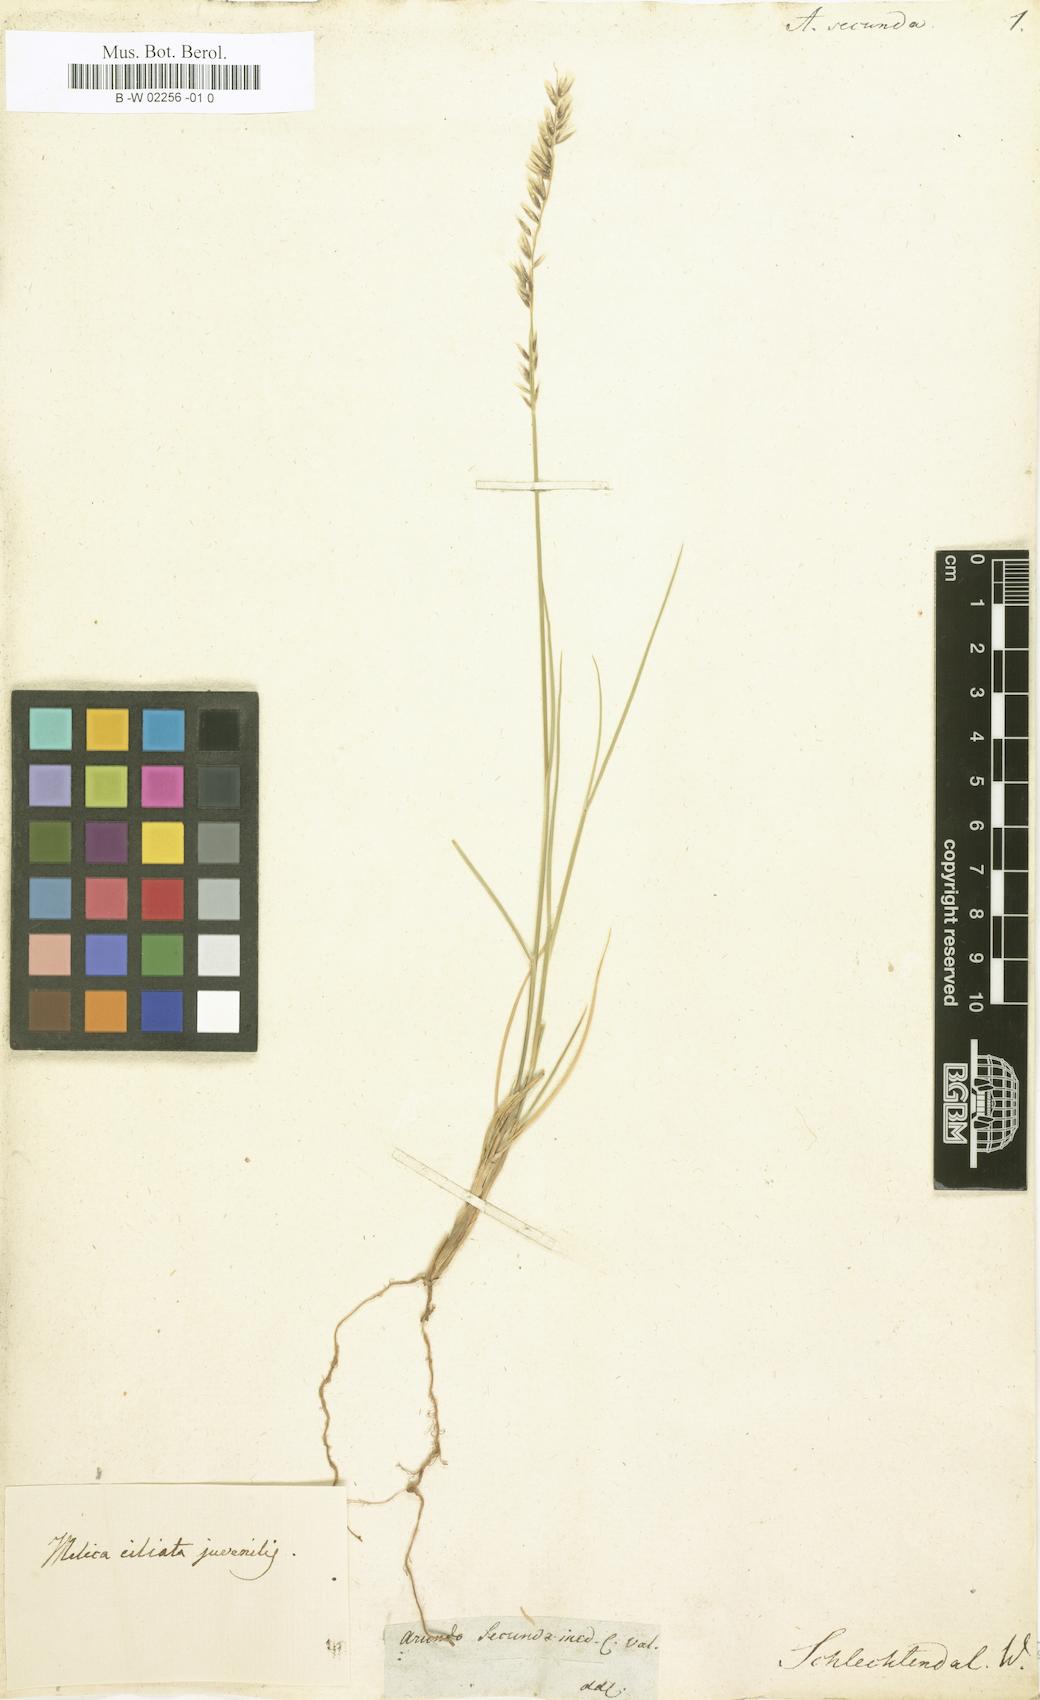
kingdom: Plantae
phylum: Tracheophyta
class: Liliopsida
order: Poales
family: Poaceae
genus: Arundo
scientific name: Arundo
